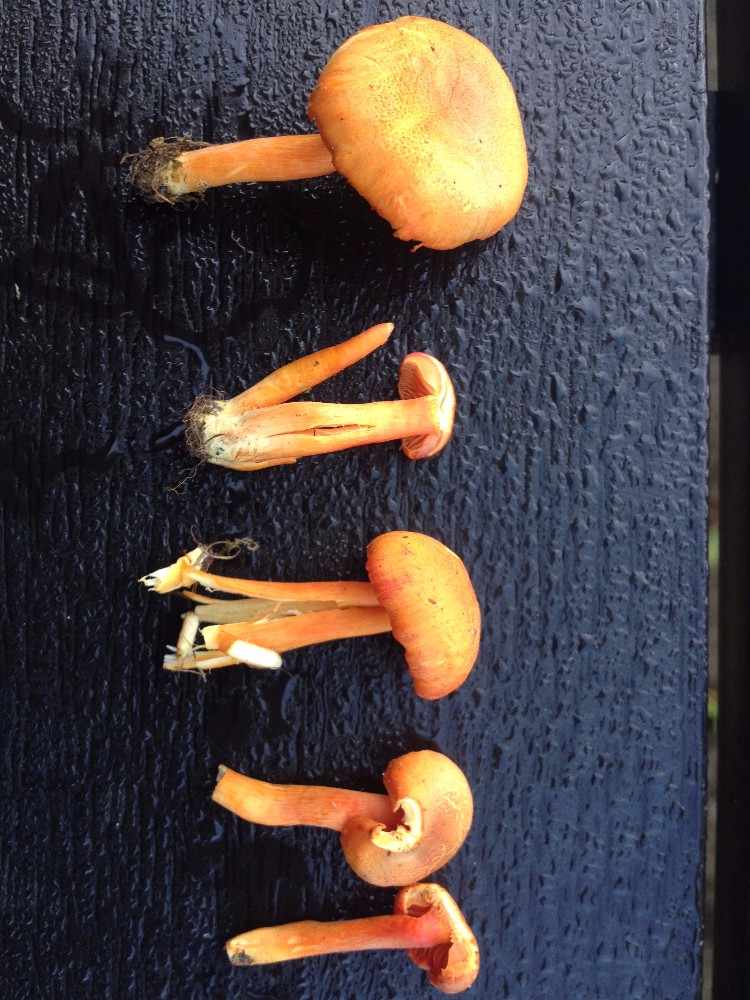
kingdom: Fungi
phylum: Basidiomycota
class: Agaricomycetes
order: Agaricales
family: Hygrophoraceae
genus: Hygrocybe
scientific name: Hygrocybe miniata
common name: mønje-vokshat
